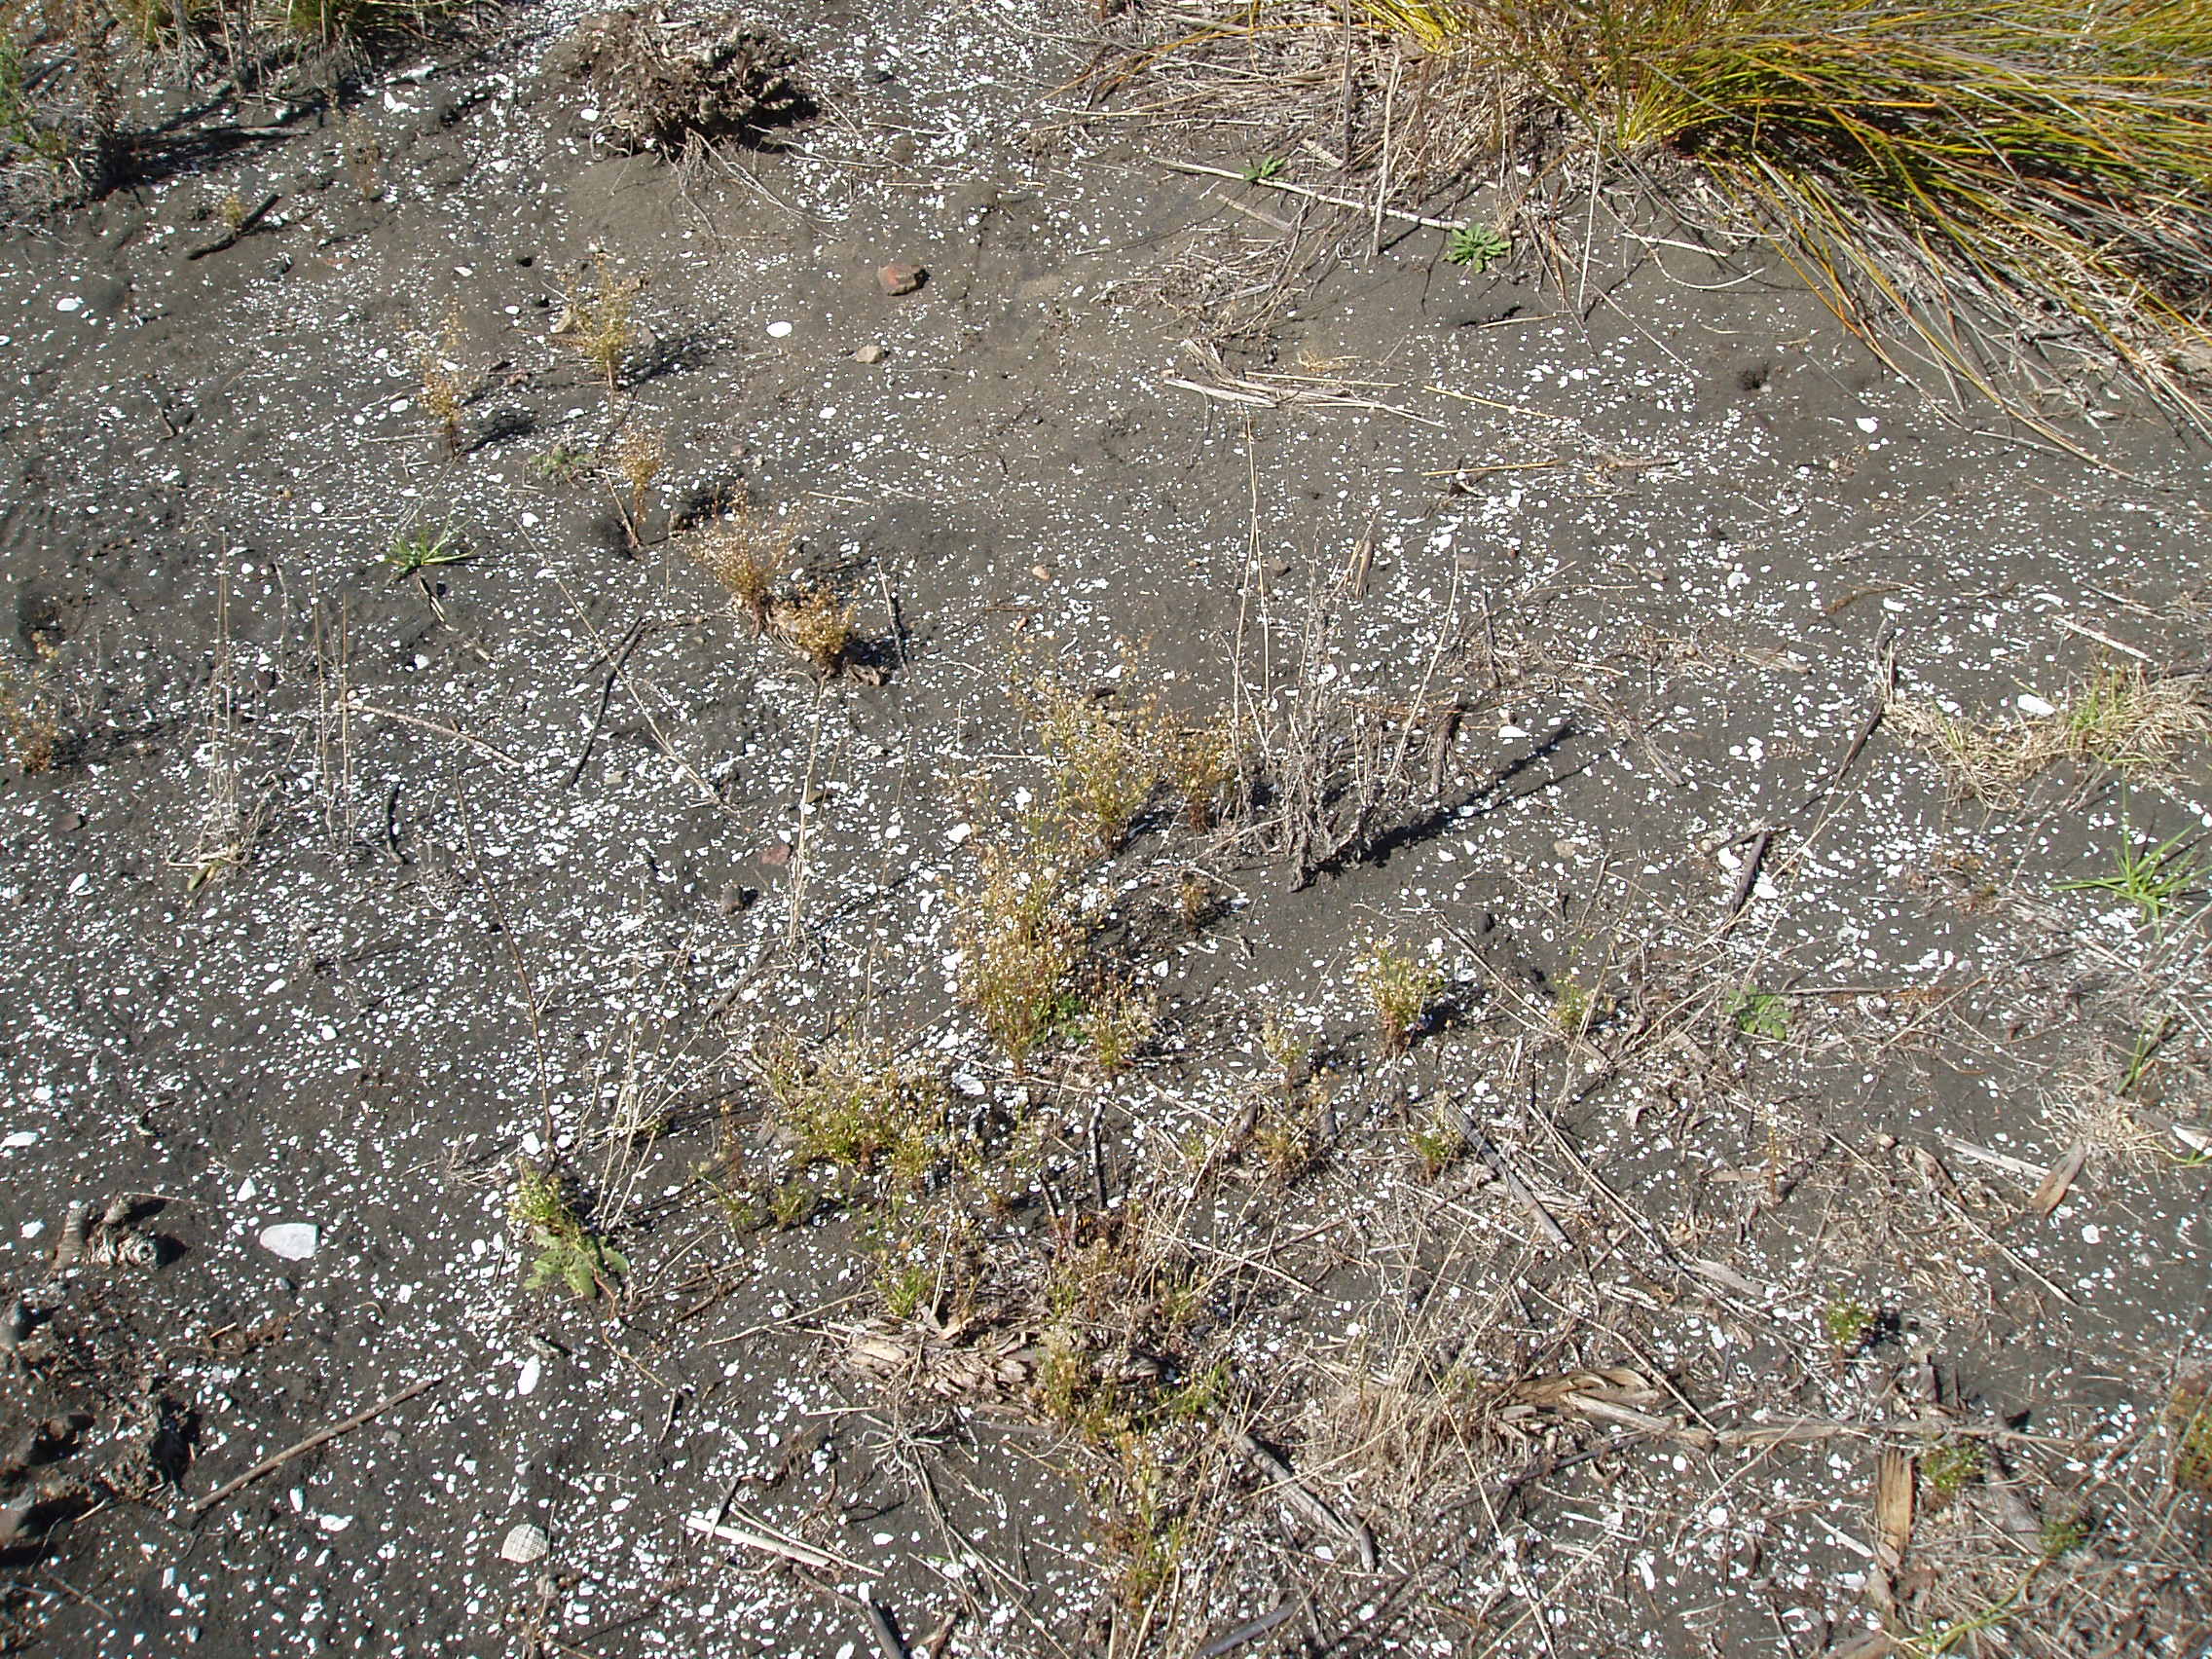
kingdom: Plantae
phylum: Tracheophyta
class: Magnoliopsida
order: Asterales
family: Asteraceae
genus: Erigeron
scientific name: Erigeron canadensis
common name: Canadian fleabane
